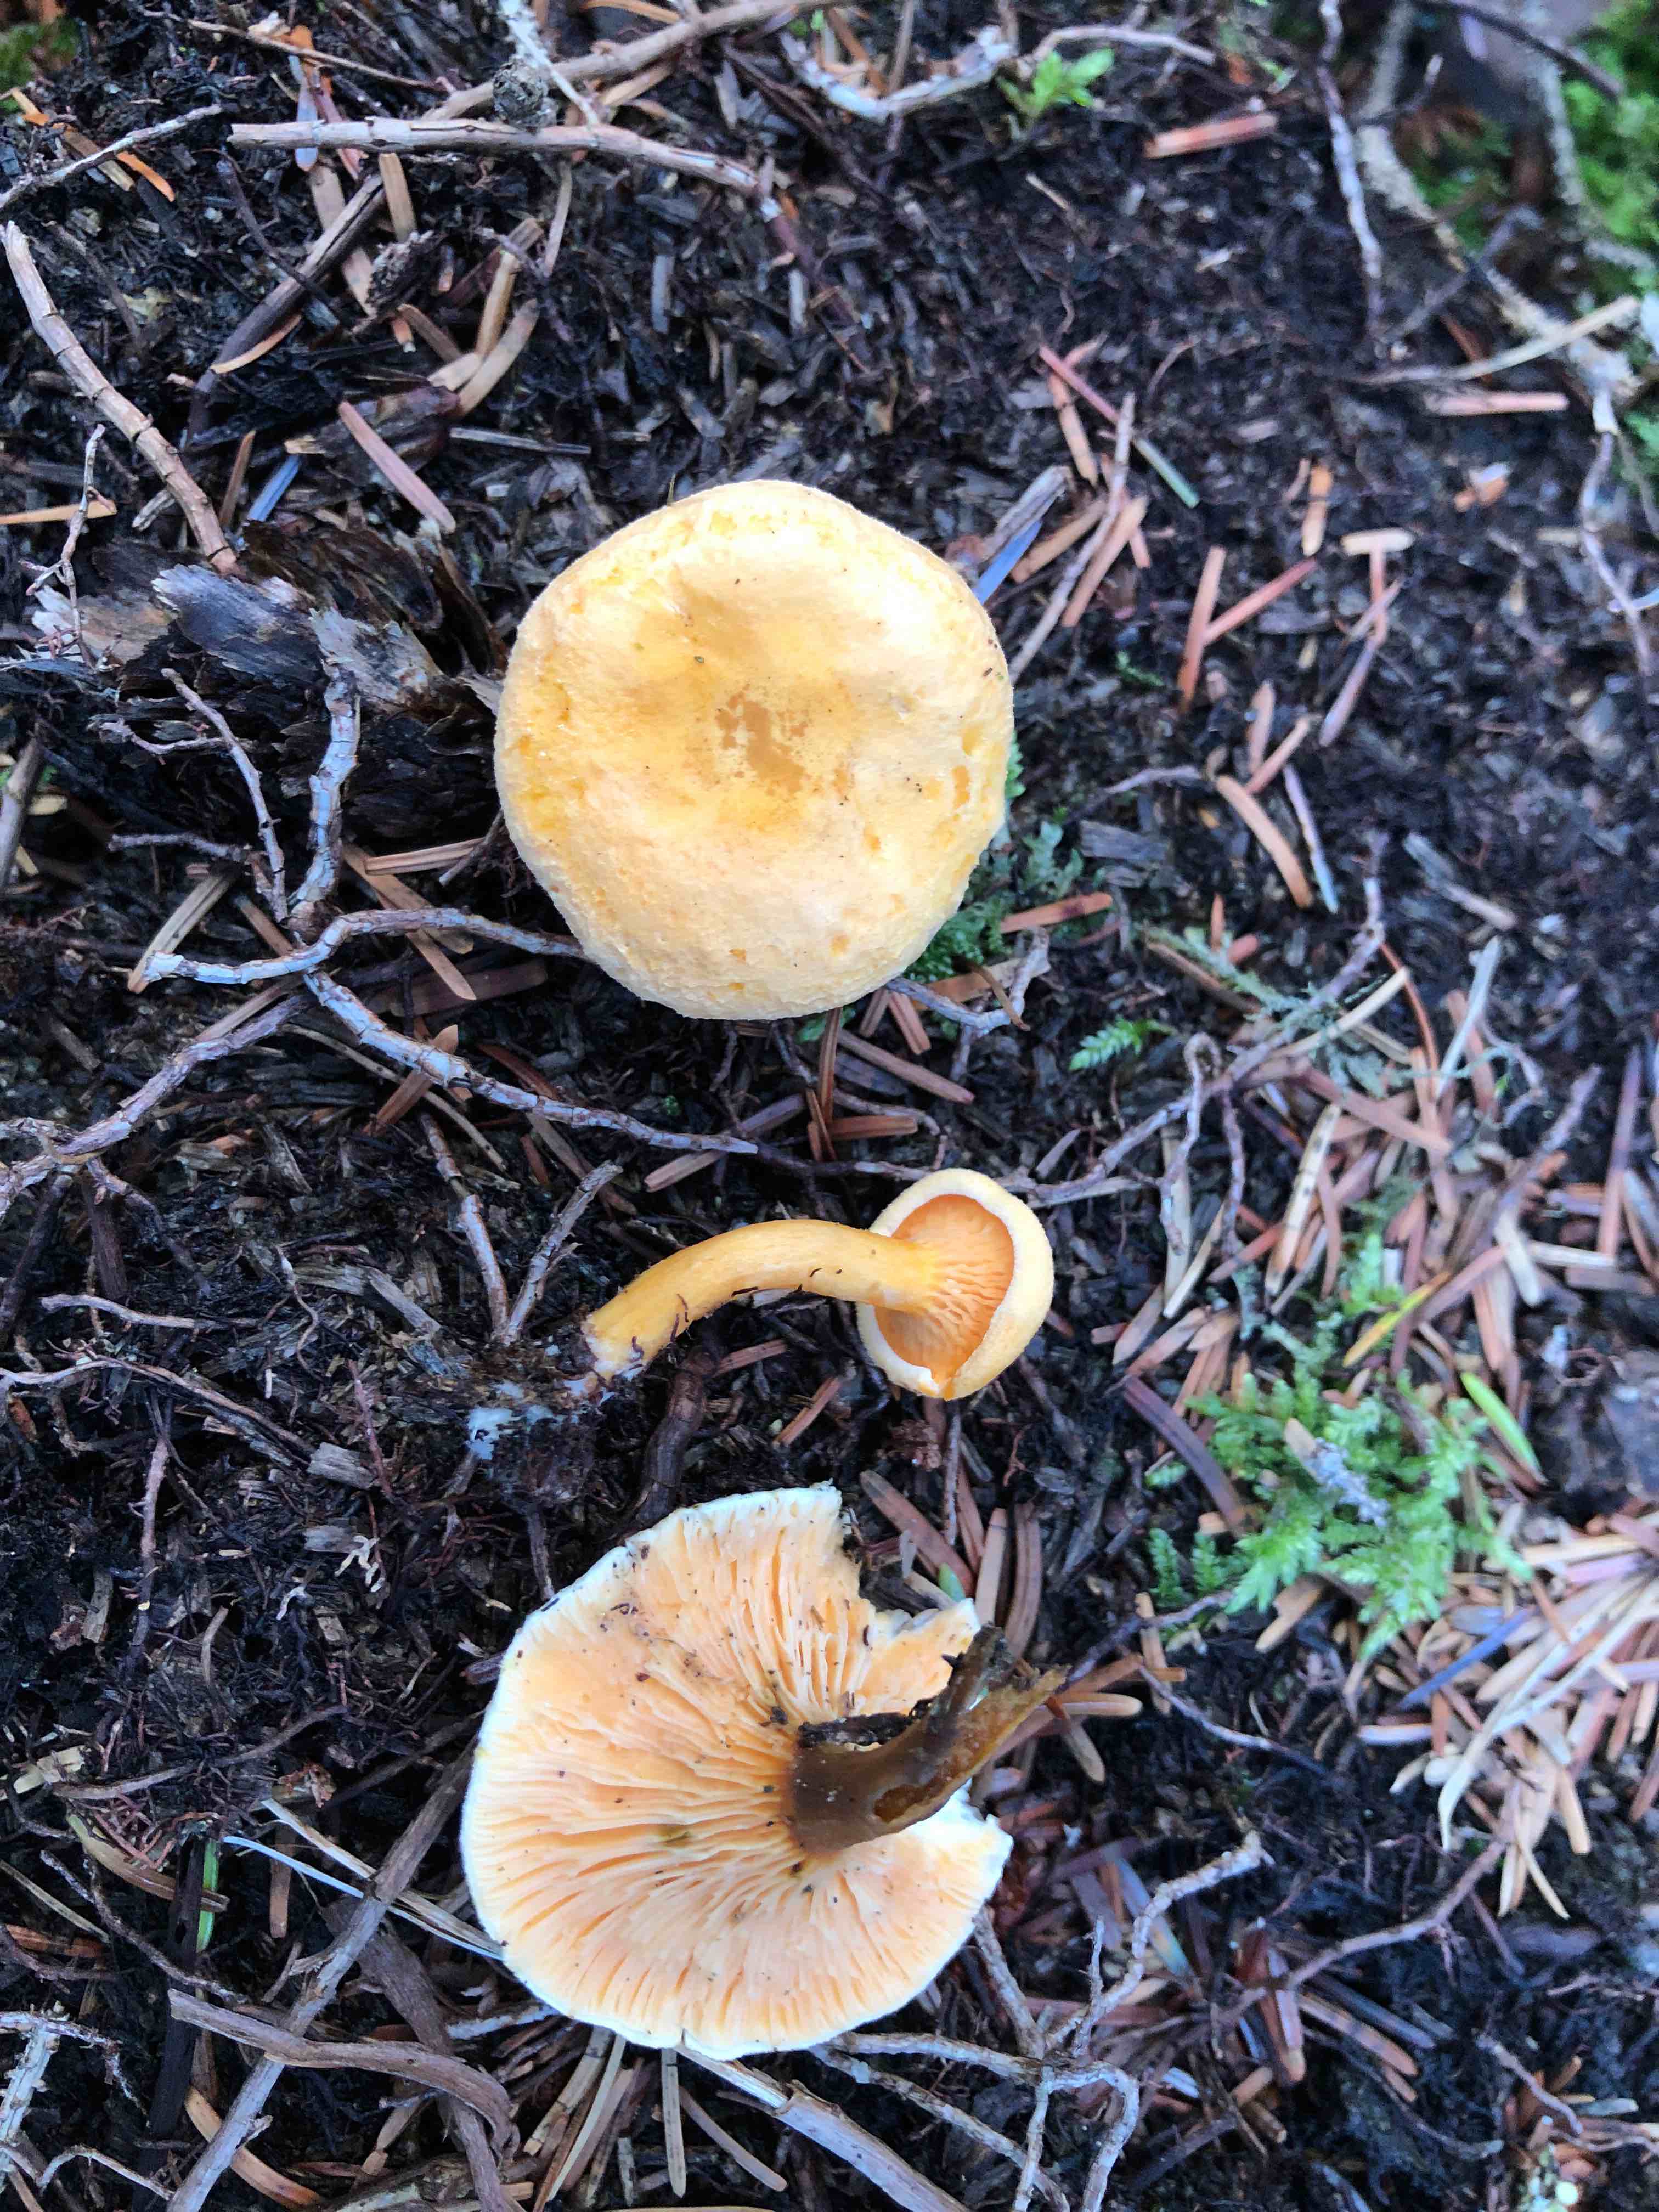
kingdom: Fungi
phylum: Basidiomycota
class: Agaricomycetes
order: Boletales
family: Hygrophoropsidaceae
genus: Hygrophoropsis
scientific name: Hygrophoropsis aurantiaca
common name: almindelig orangekantarel
